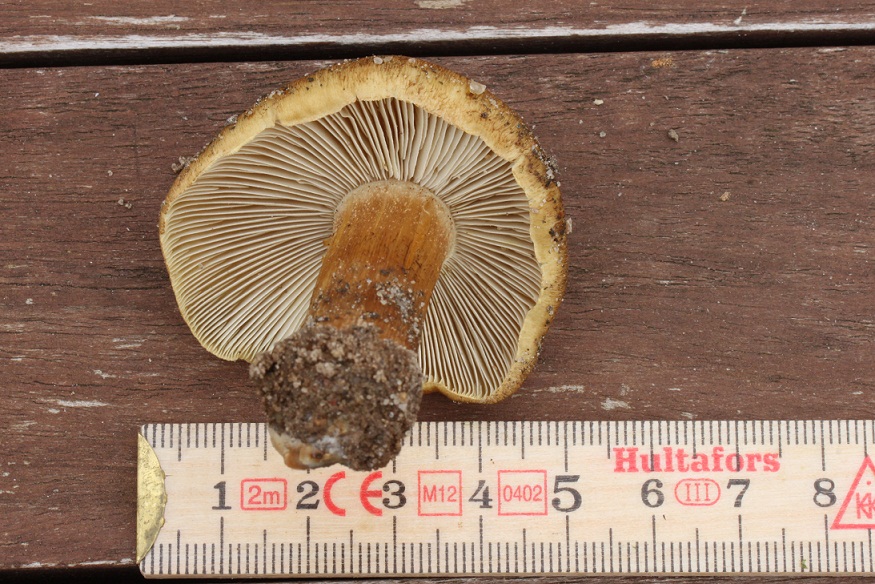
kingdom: Fungi
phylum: Basidiomycota
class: Agaricomycetes
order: Agaricales
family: Inocybaceae
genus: Pseudosperma
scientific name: Pseudosperma
